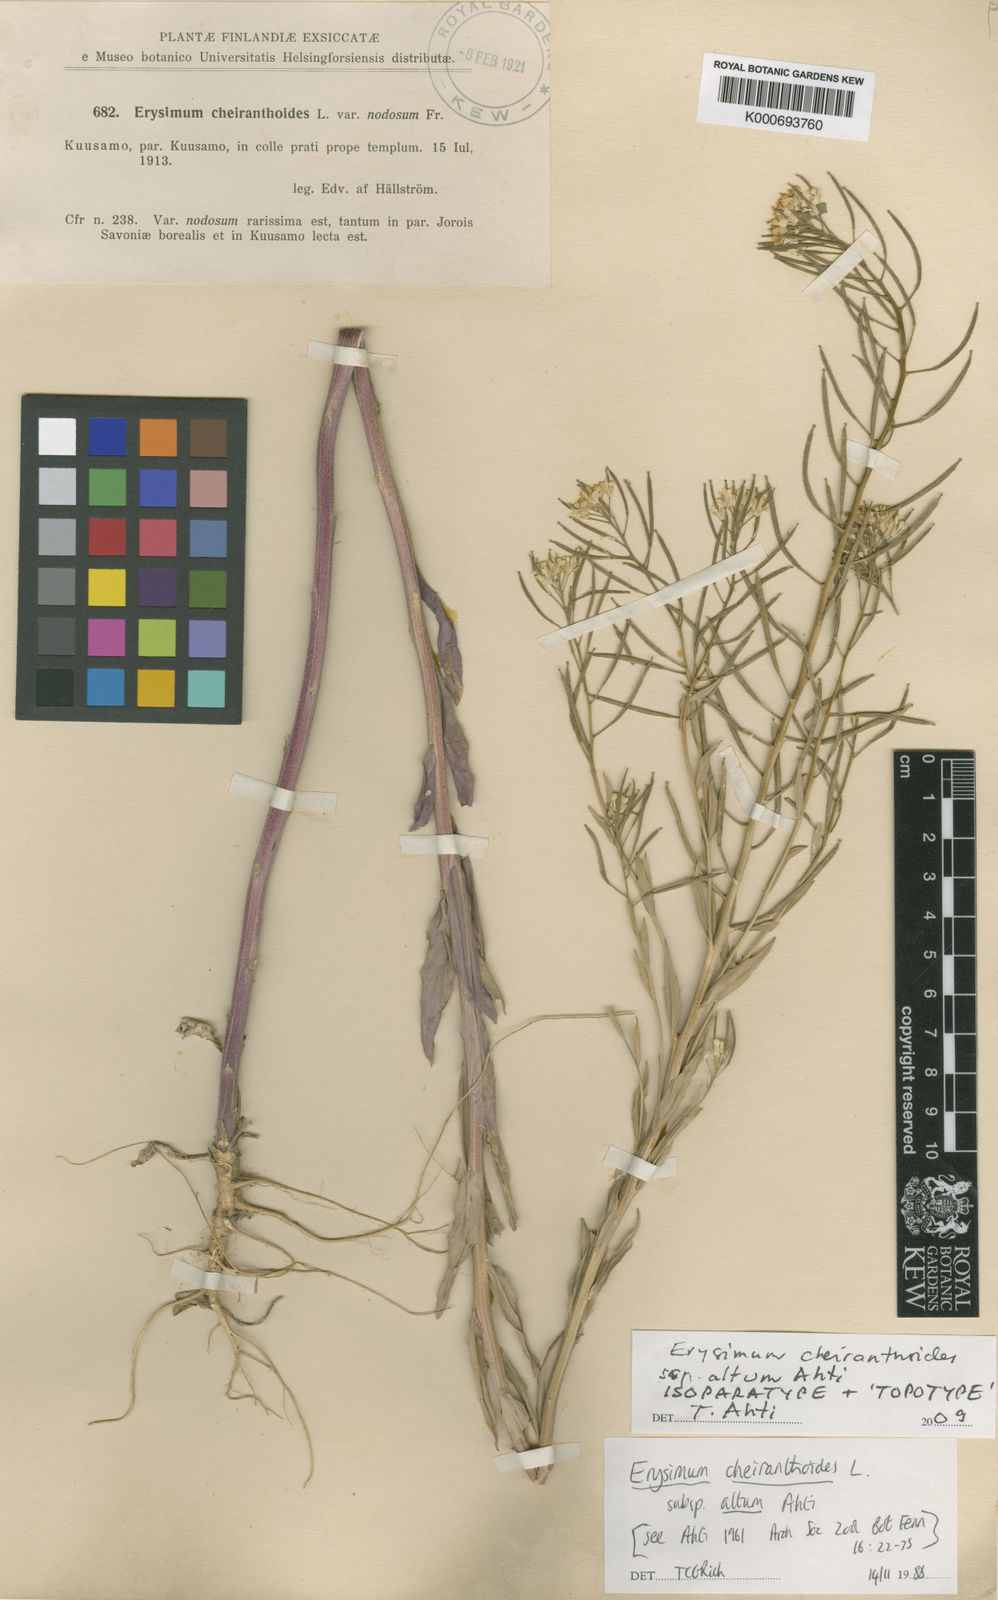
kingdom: Plantae
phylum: Tracheophyta
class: Magnoliopsida
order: Brassicales
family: Brassicaceae
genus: Erysimum
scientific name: Erysimum cheiranthoides
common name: Treacle mustard
